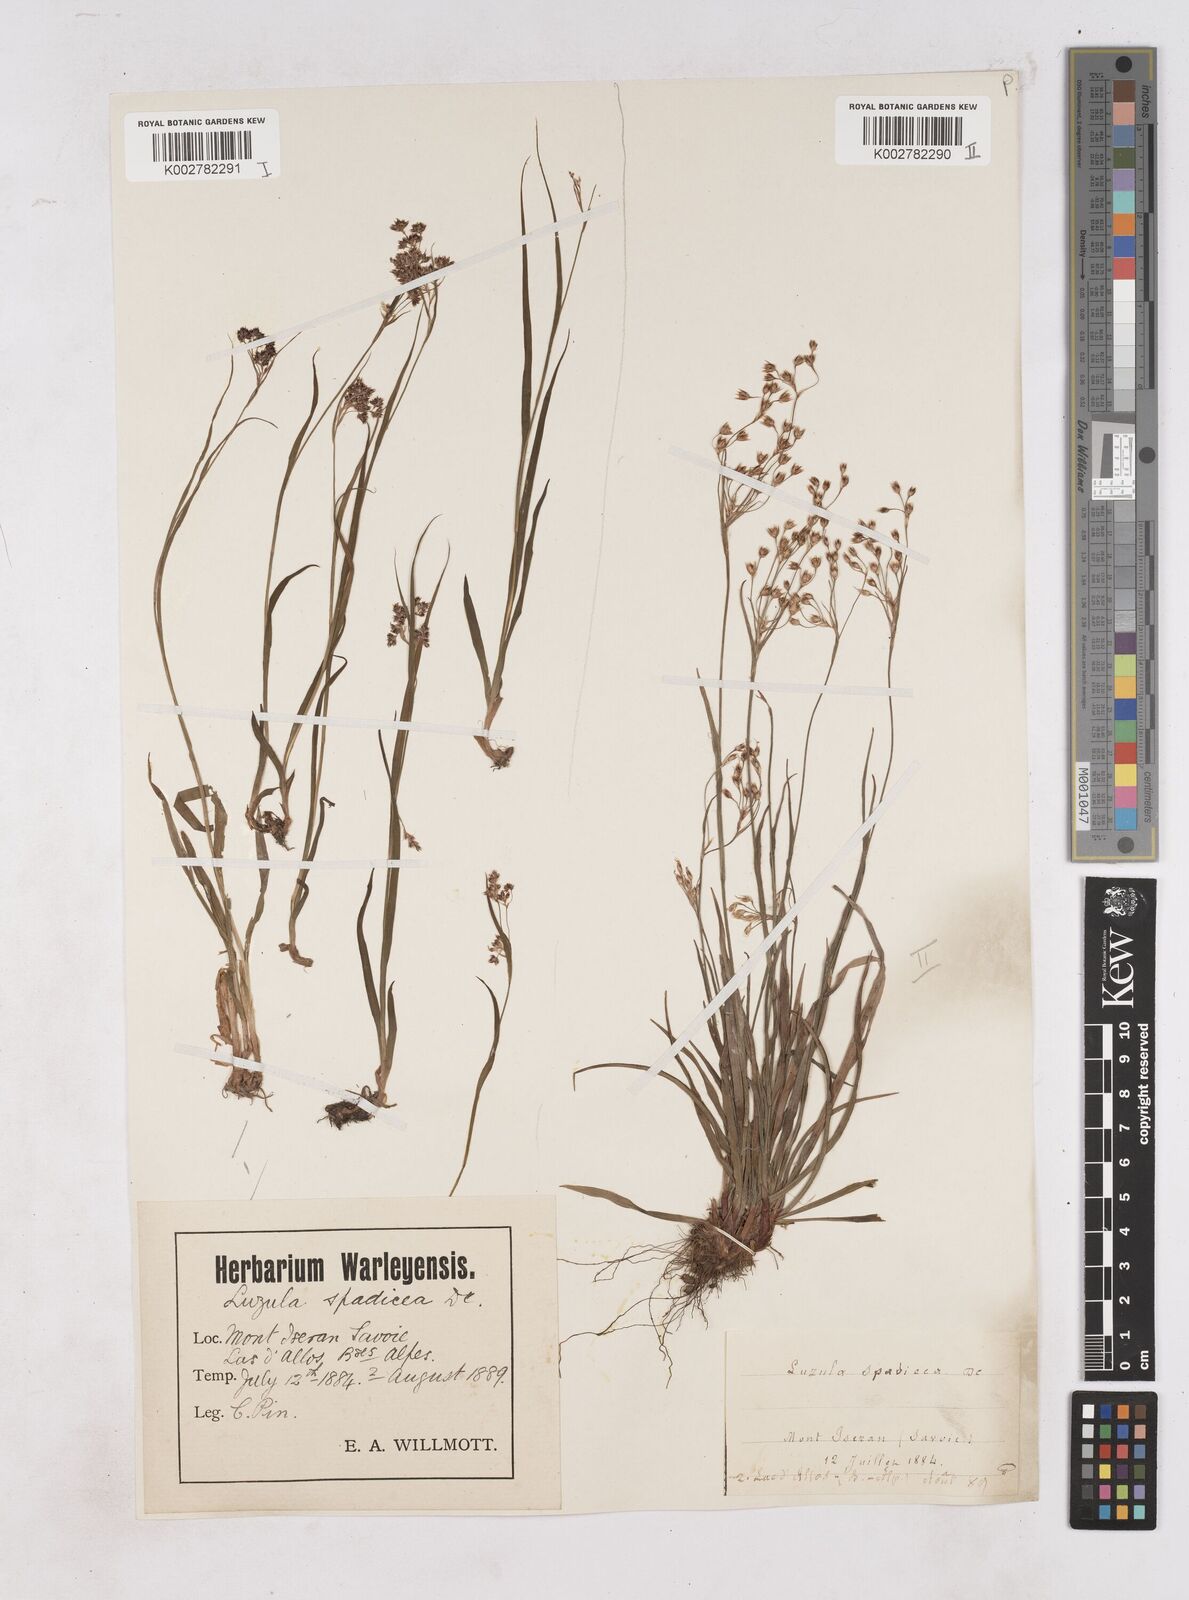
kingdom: Plantae
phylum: Tracheophyta
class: Liliopsida
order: Poales
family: Juncaceae
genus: Luzula
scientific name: Luzula alpinopilosa
